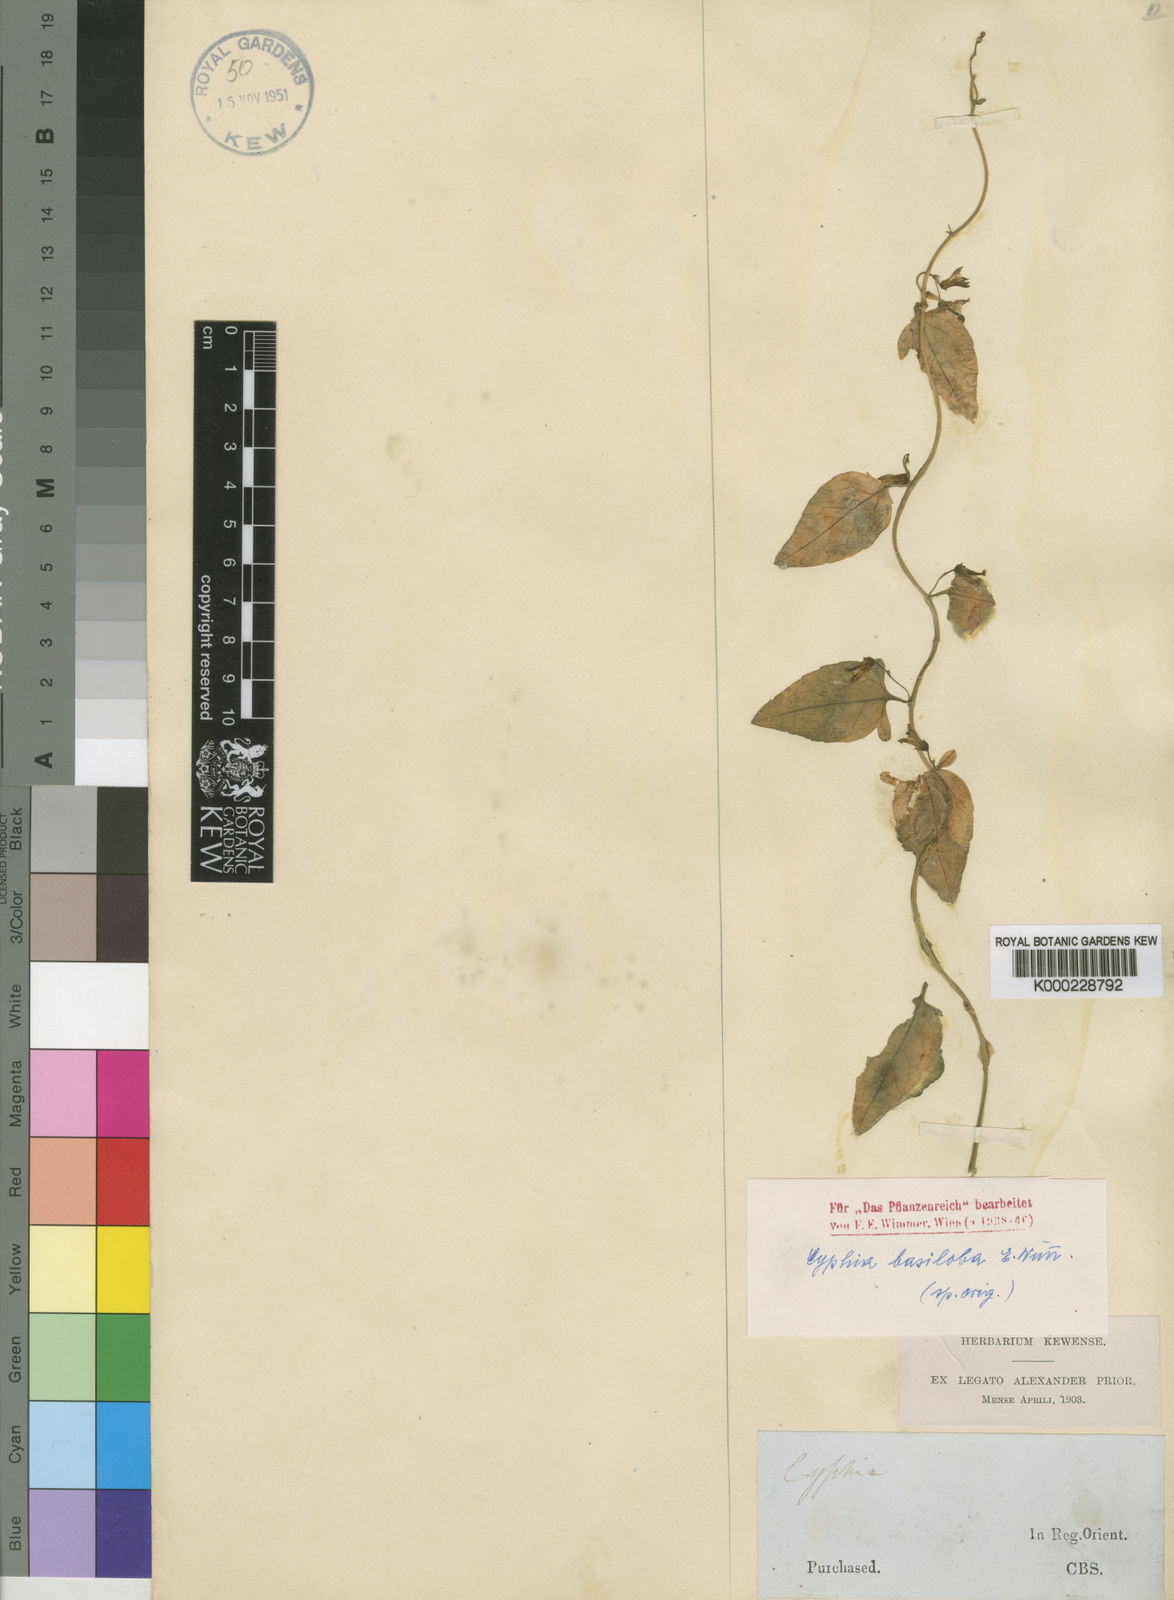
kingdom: Plantae
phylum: Tracheophyta
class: Magnoliopsida
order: Asterales
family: Campanulaceae
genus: Cyphia
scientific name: Cyphia basiloba
